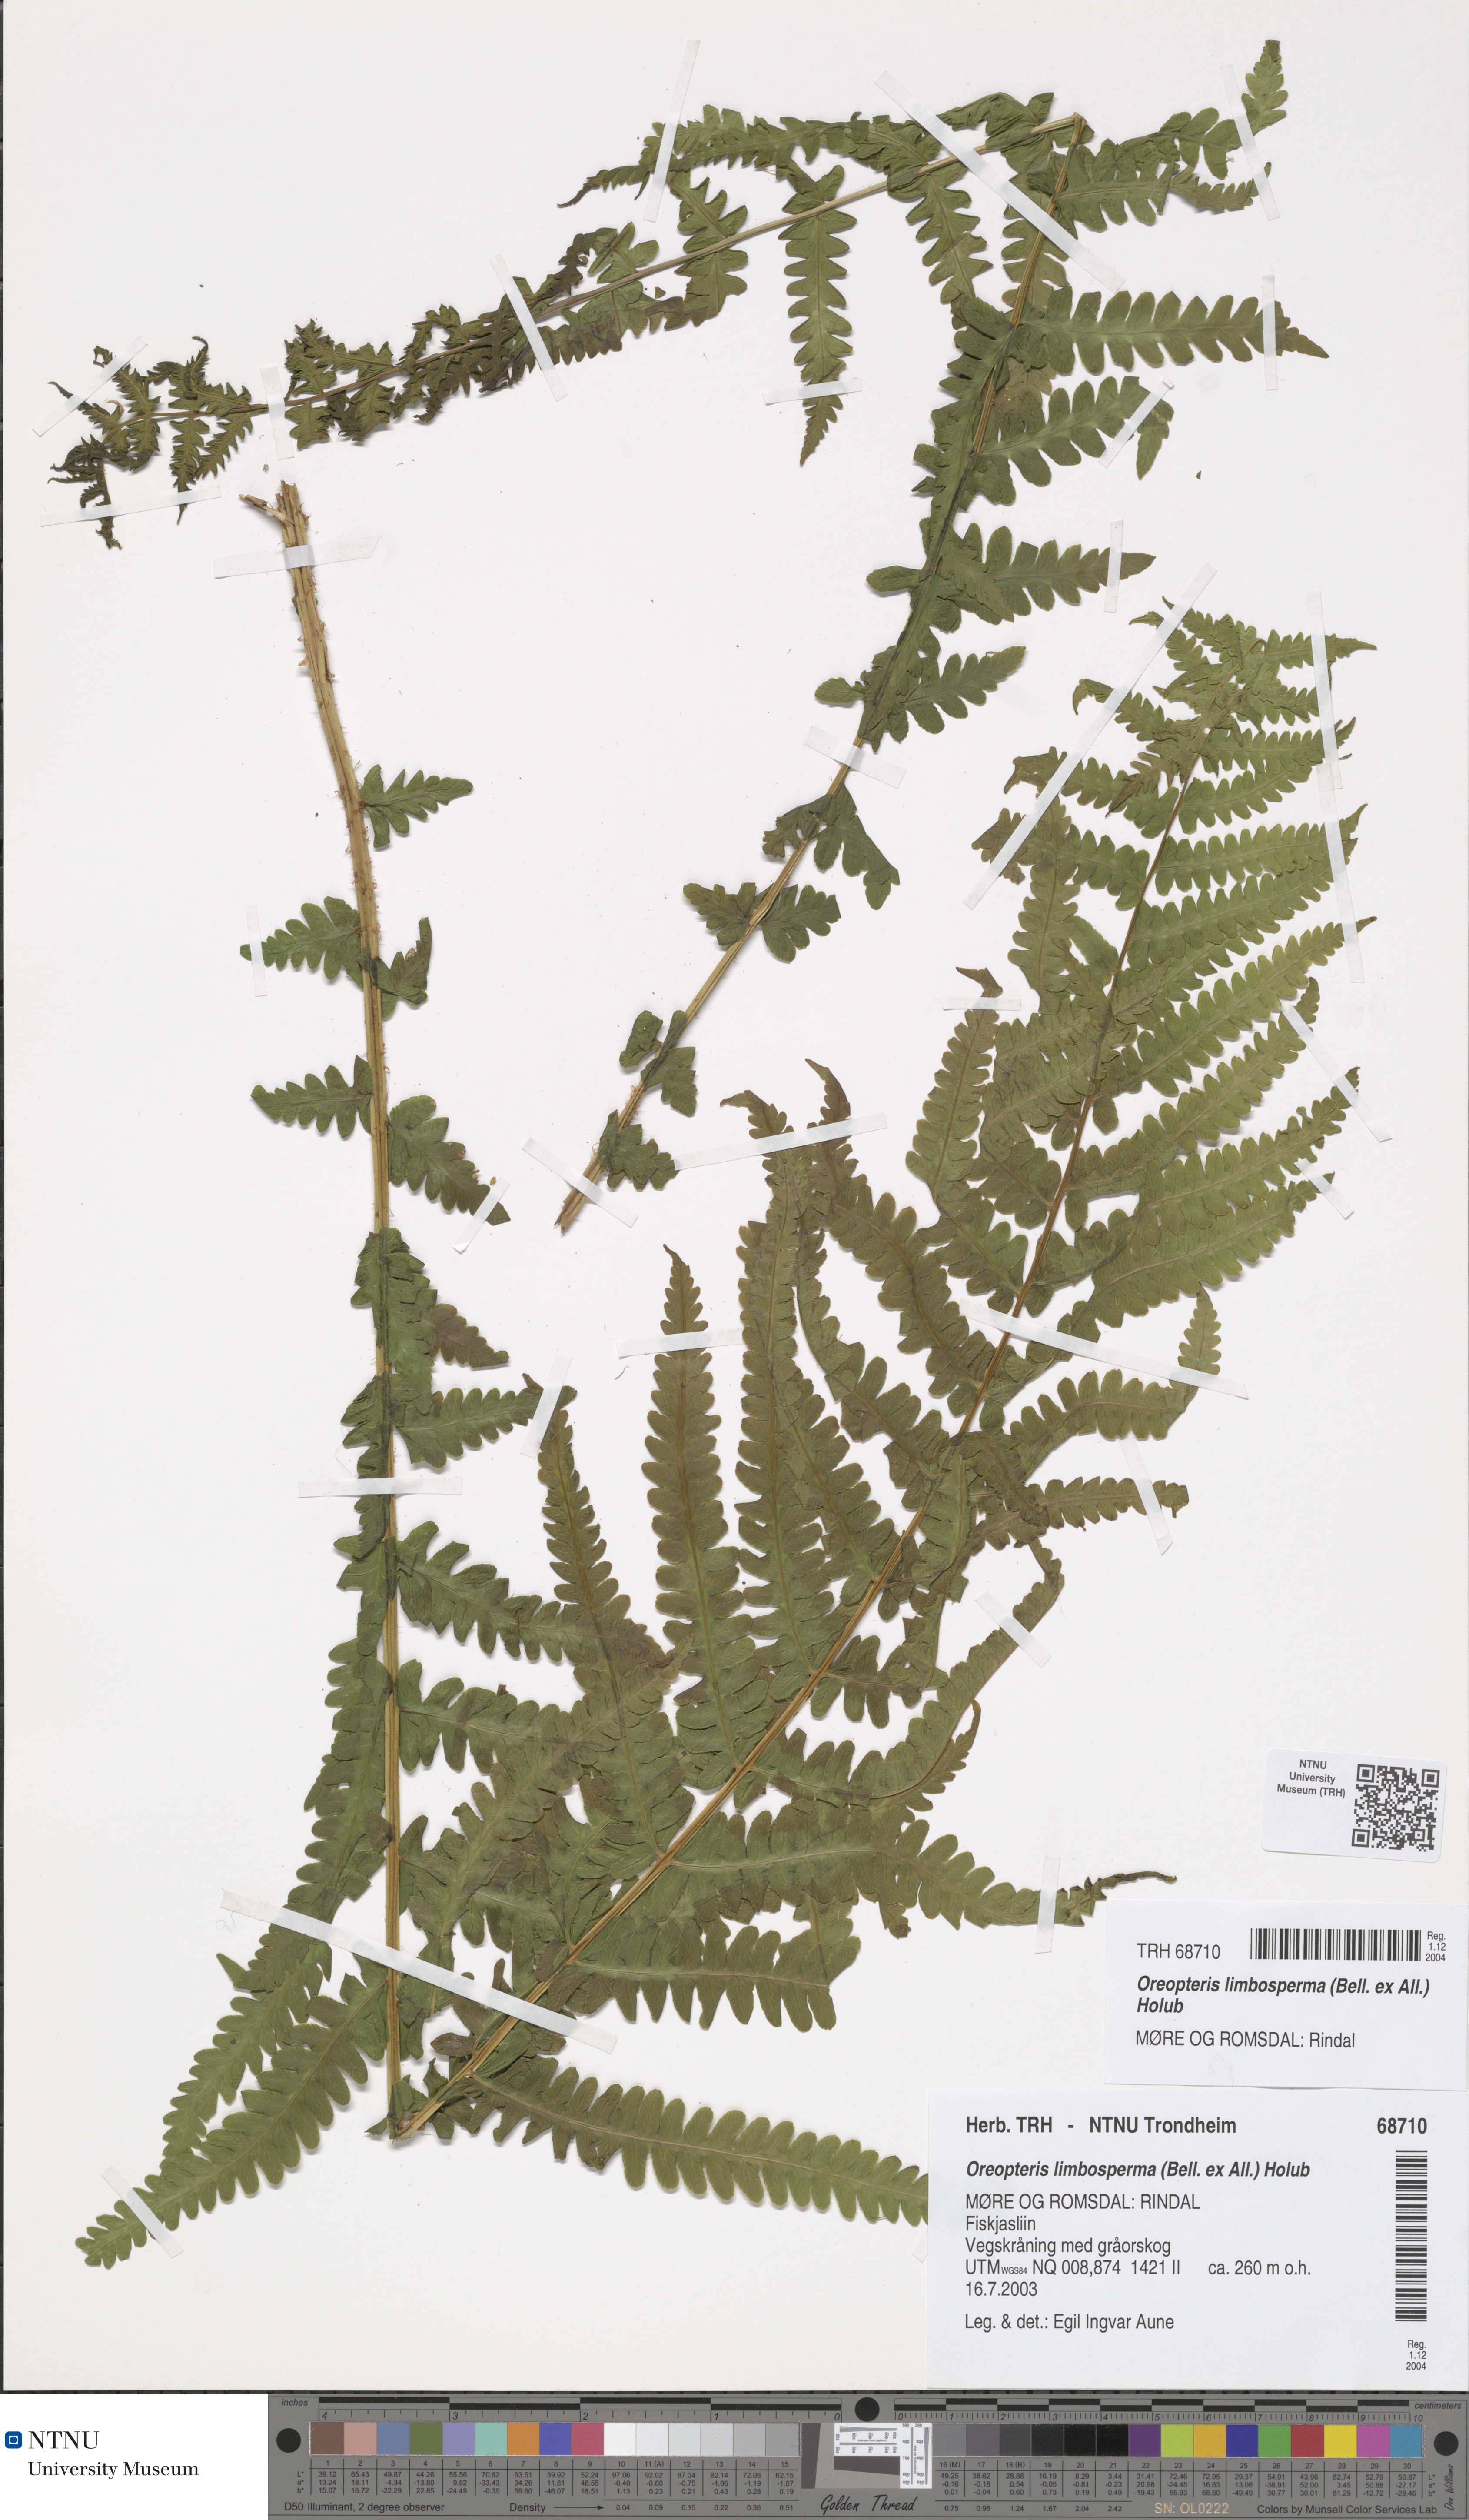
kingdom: Plantae
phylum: Tracheophyta
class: Polypodiopsida
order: Polypodiales
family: Thelypteridaceae
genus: Oreopteris
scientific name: Oreopteris limbosperma
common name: Lemon-scented fern
